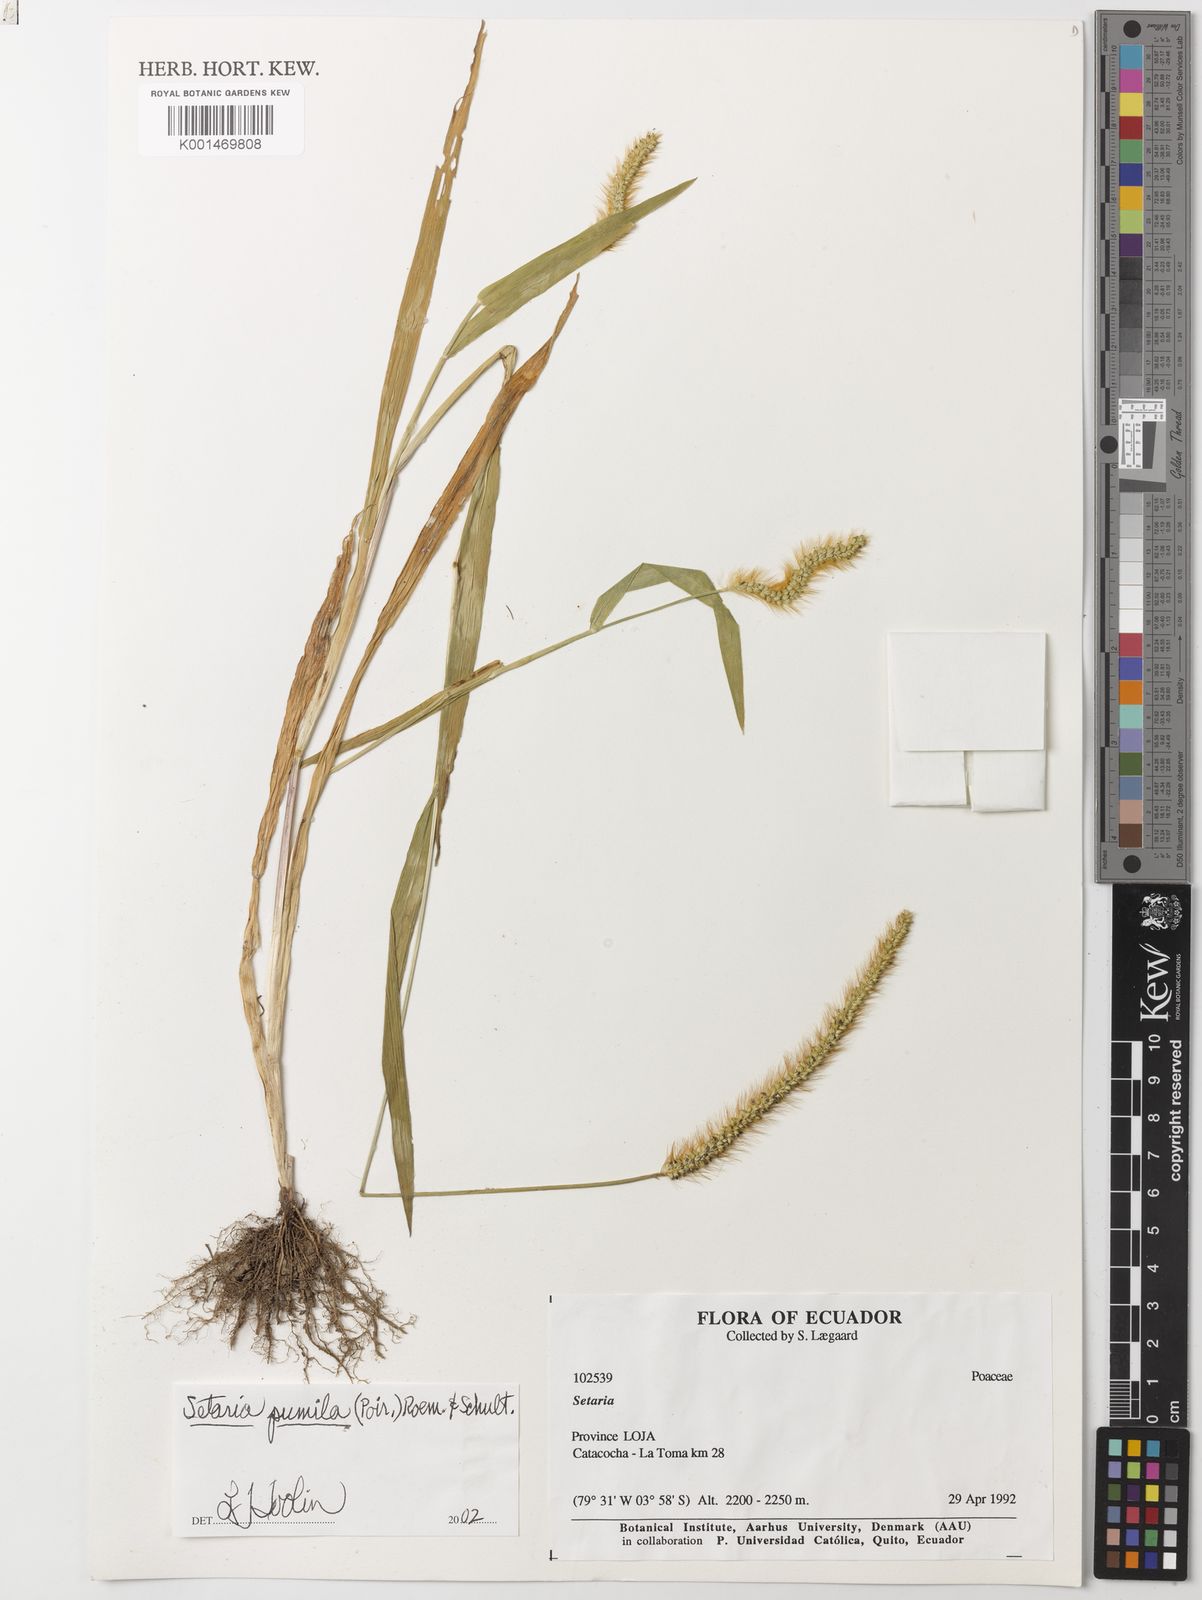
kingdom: Plantae
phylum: Tracheophyta
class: Liliopsida
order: Poales
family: Poaceae
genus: Setaria
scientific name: Setaria pumila
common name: Yellow bristle-grass
